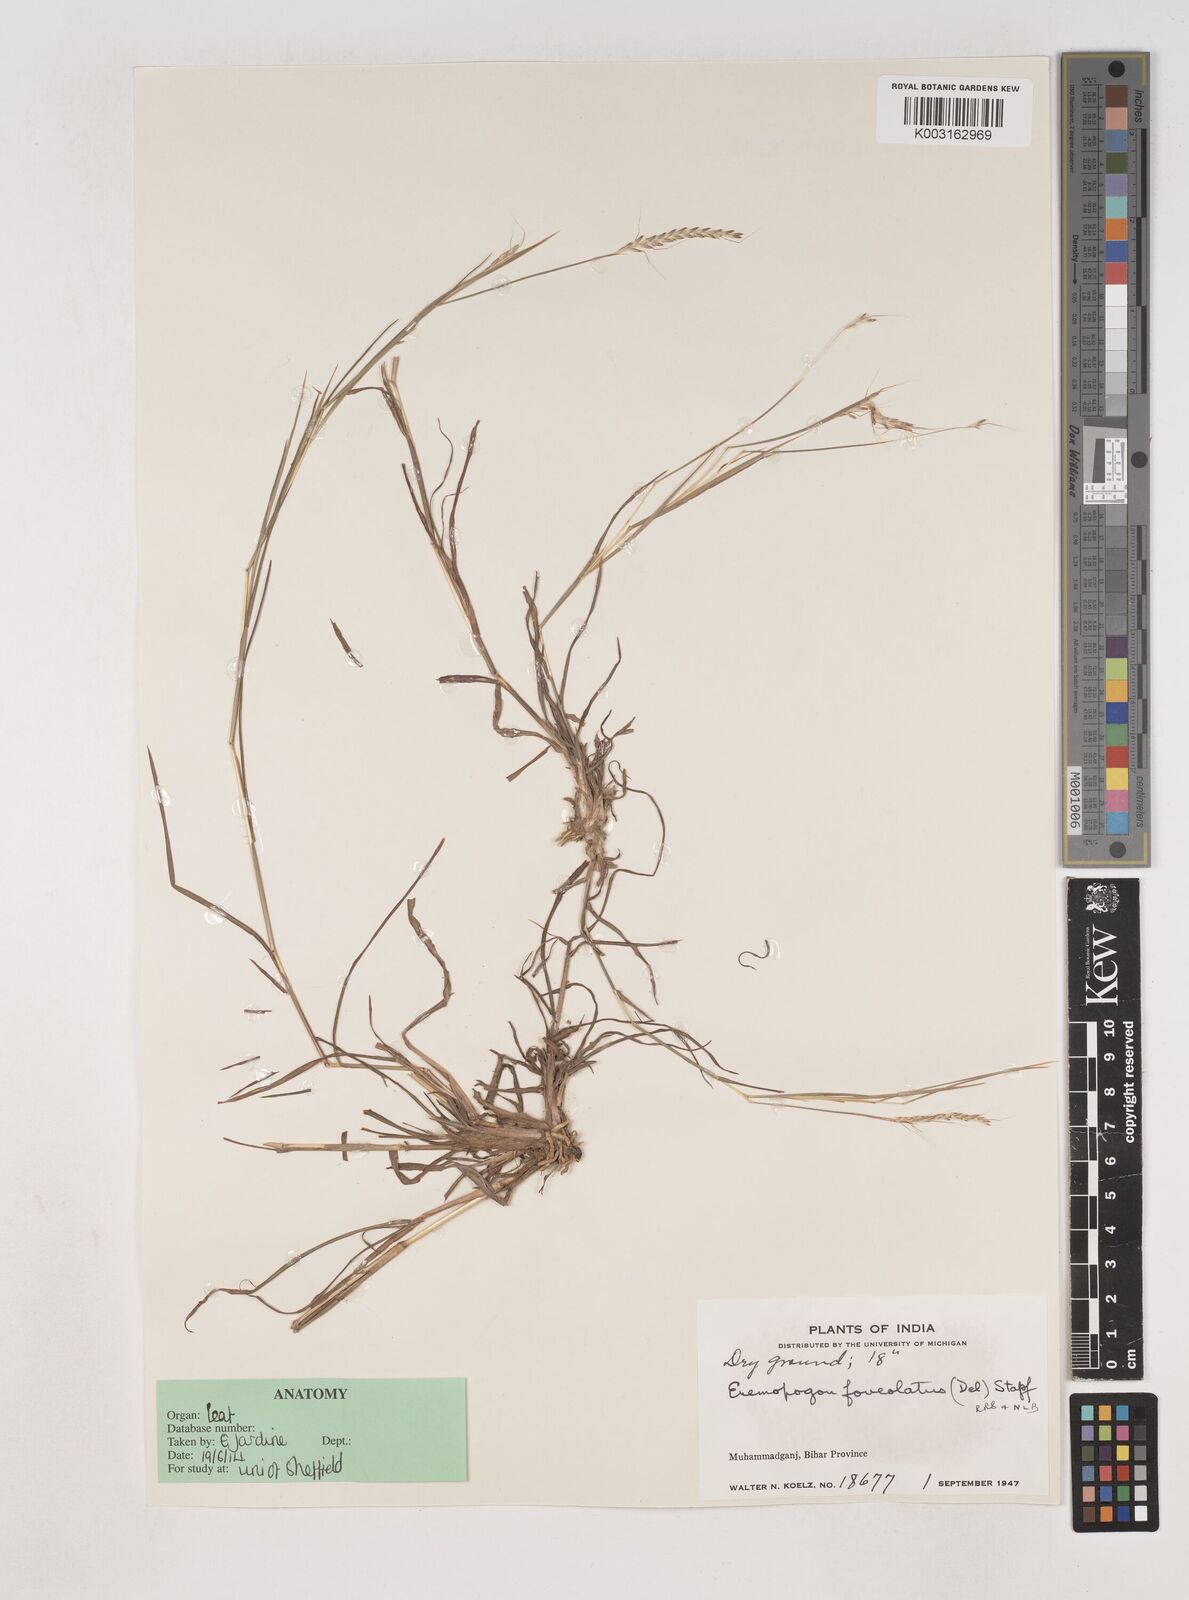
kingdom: Plantae
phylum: Tracheophyta
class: Liliopsida
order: Poales
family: Poaceae
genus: Dichanthium
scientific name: Dichanthium foveolatum
